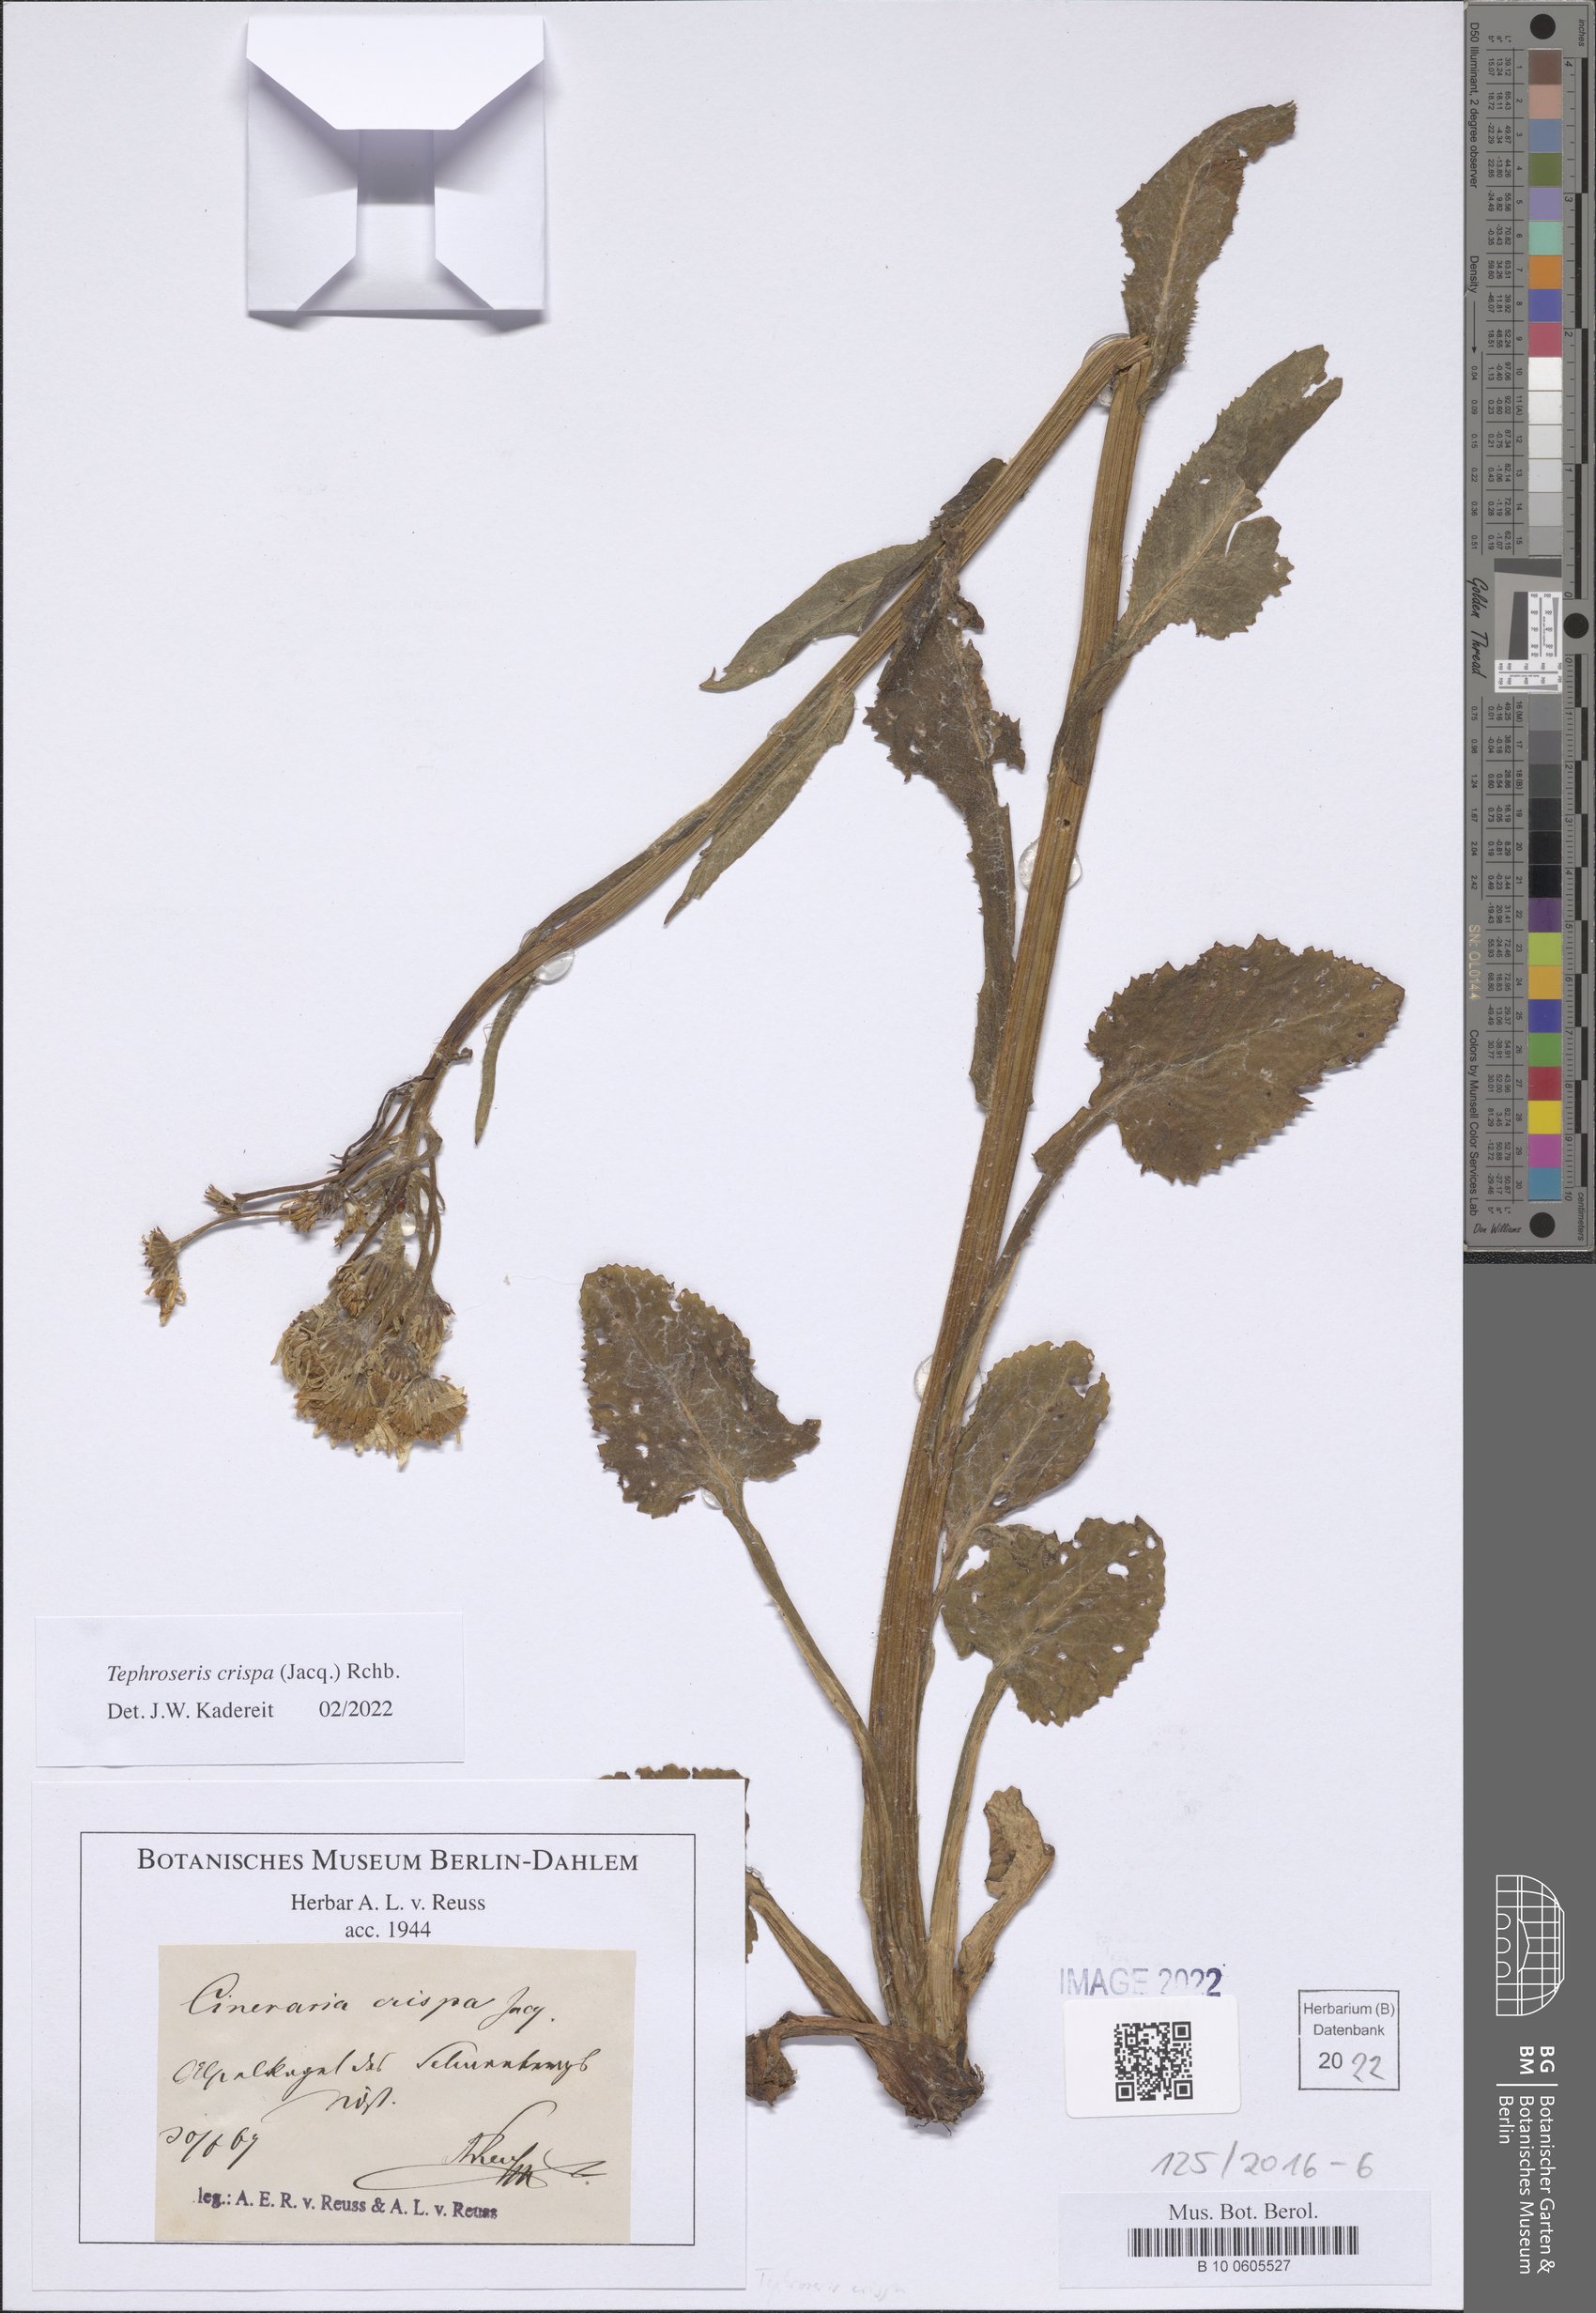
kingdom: Plantae
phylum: Tracheophyta
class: Magnoliopsida
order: Asterales
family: Asteraceae
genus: Tephroseris
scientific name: Tephroseris crispa
